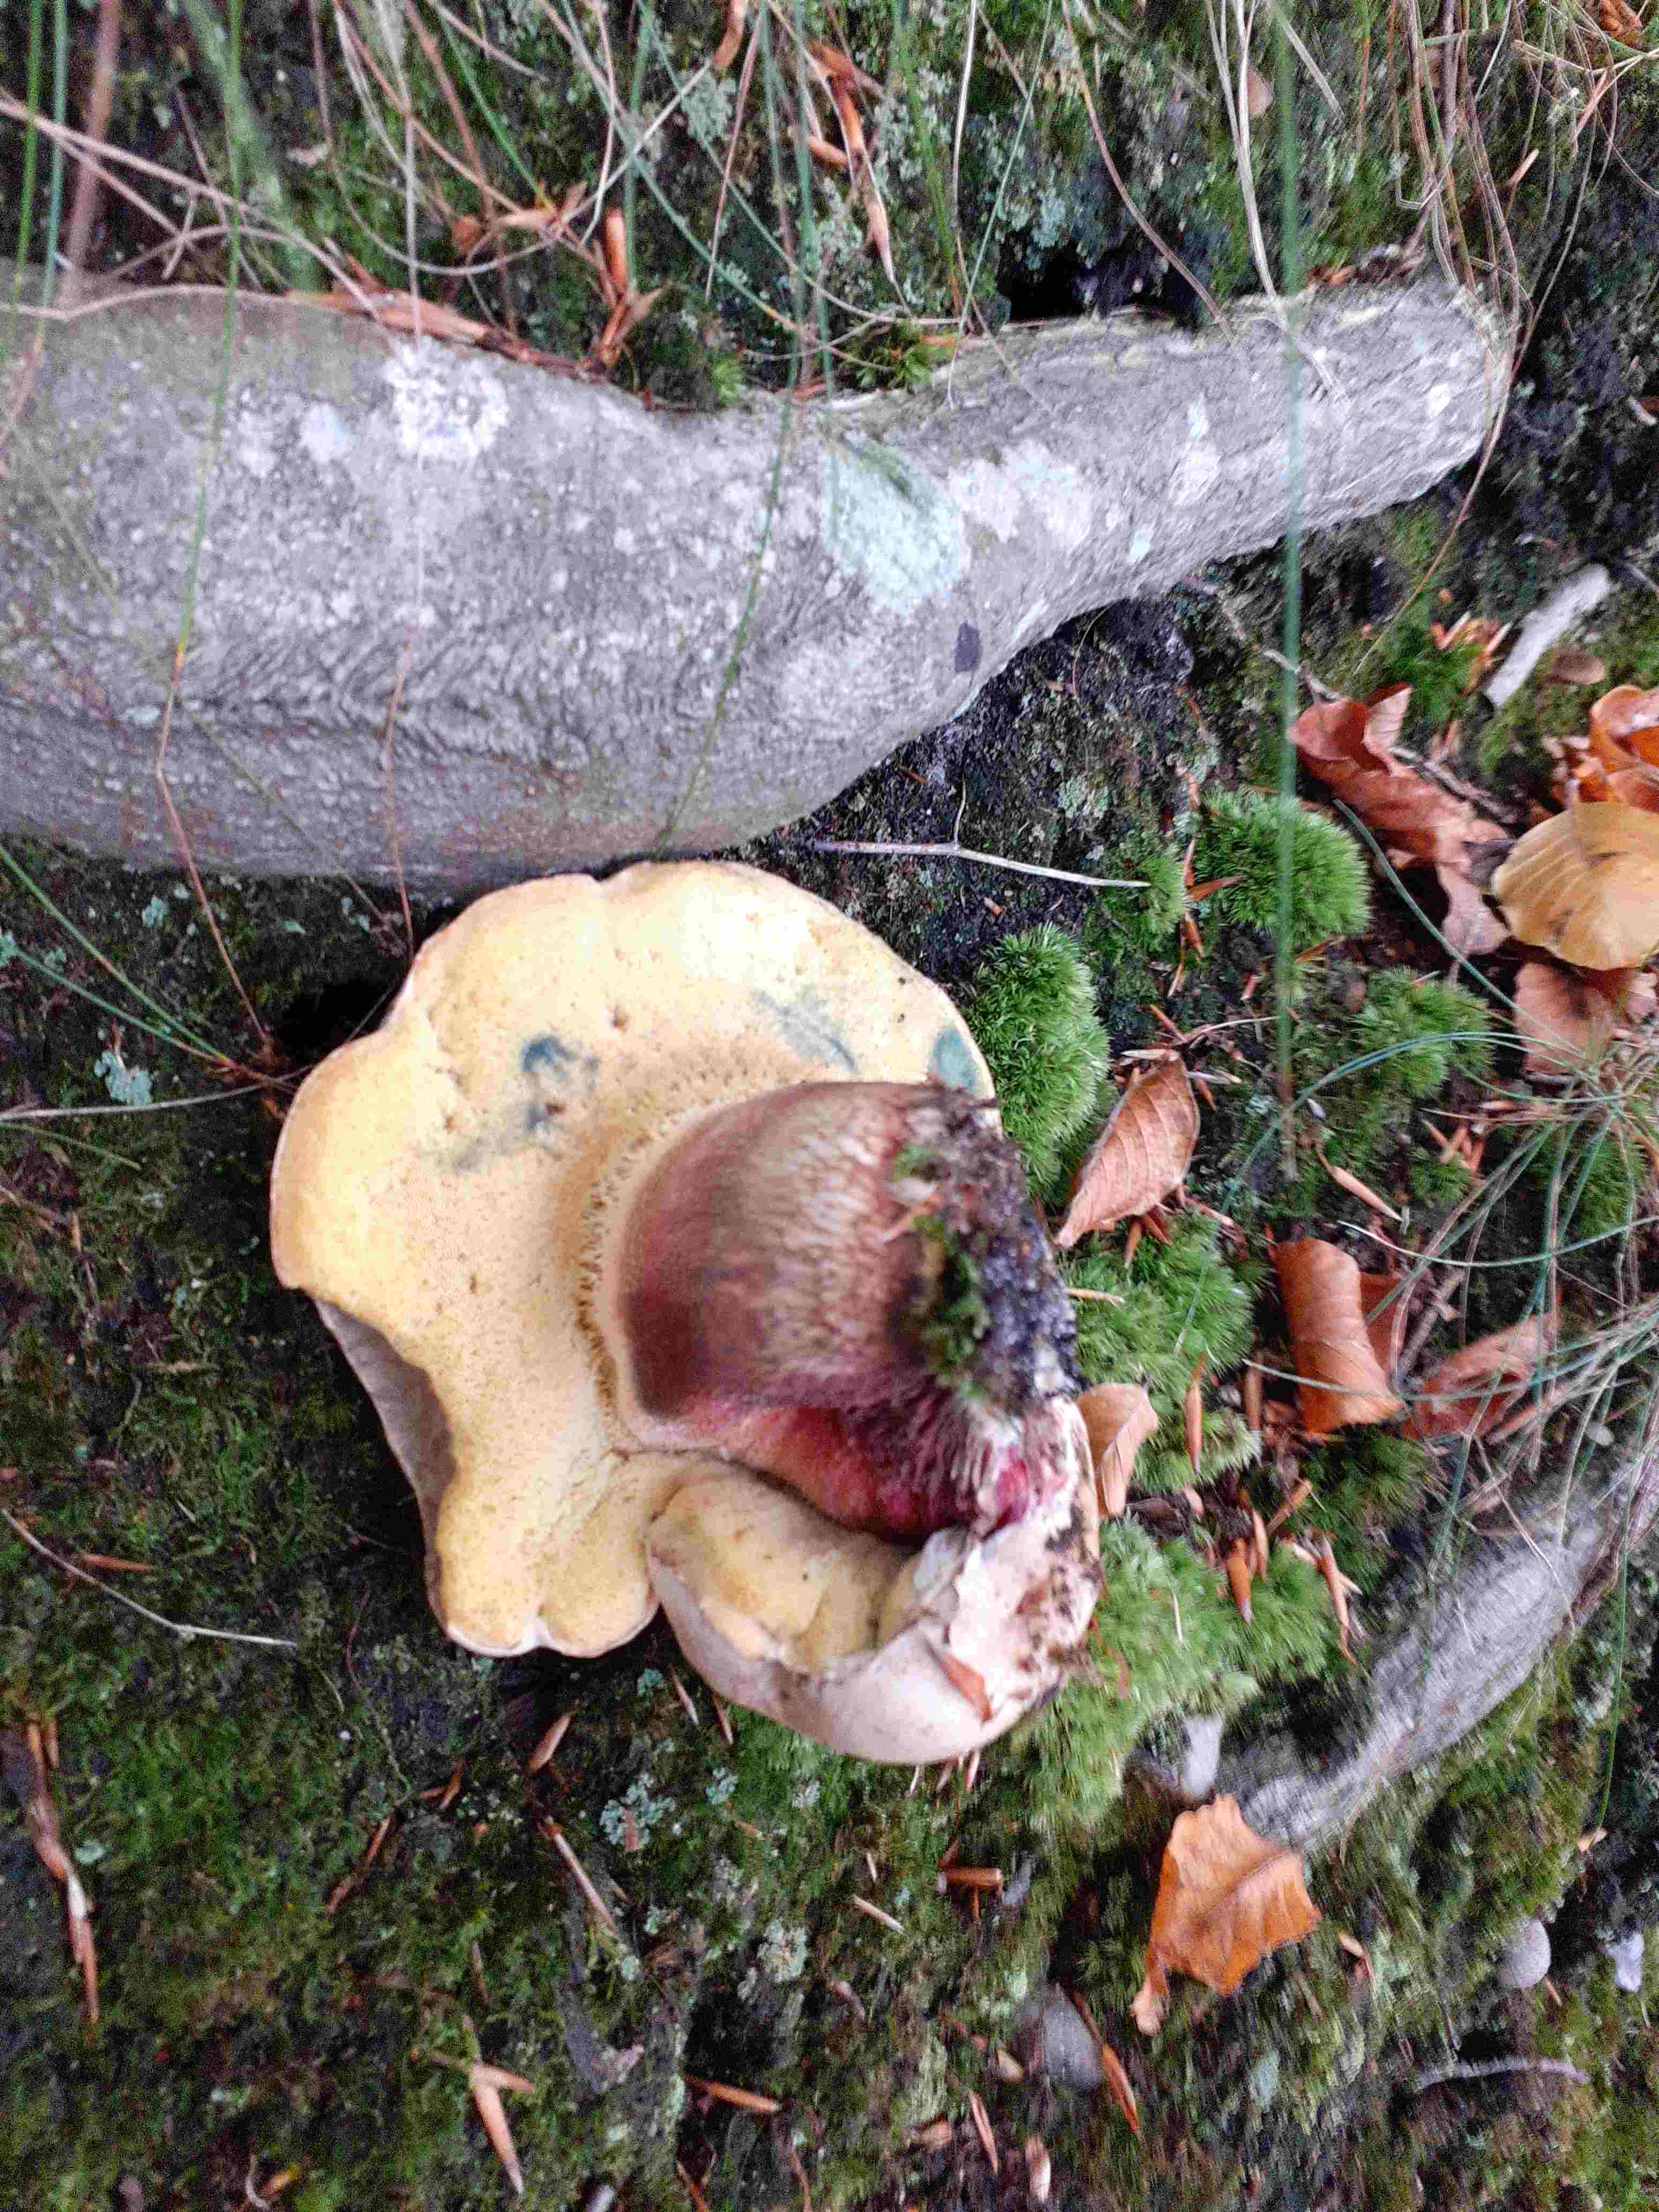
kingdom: Fungi
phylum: Basidiomycota
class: Agaricomycetes
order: Boletales
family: Boletaceae
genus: Caloboletus
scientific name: Caloboletus calopus
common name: skønfodet rørhat
